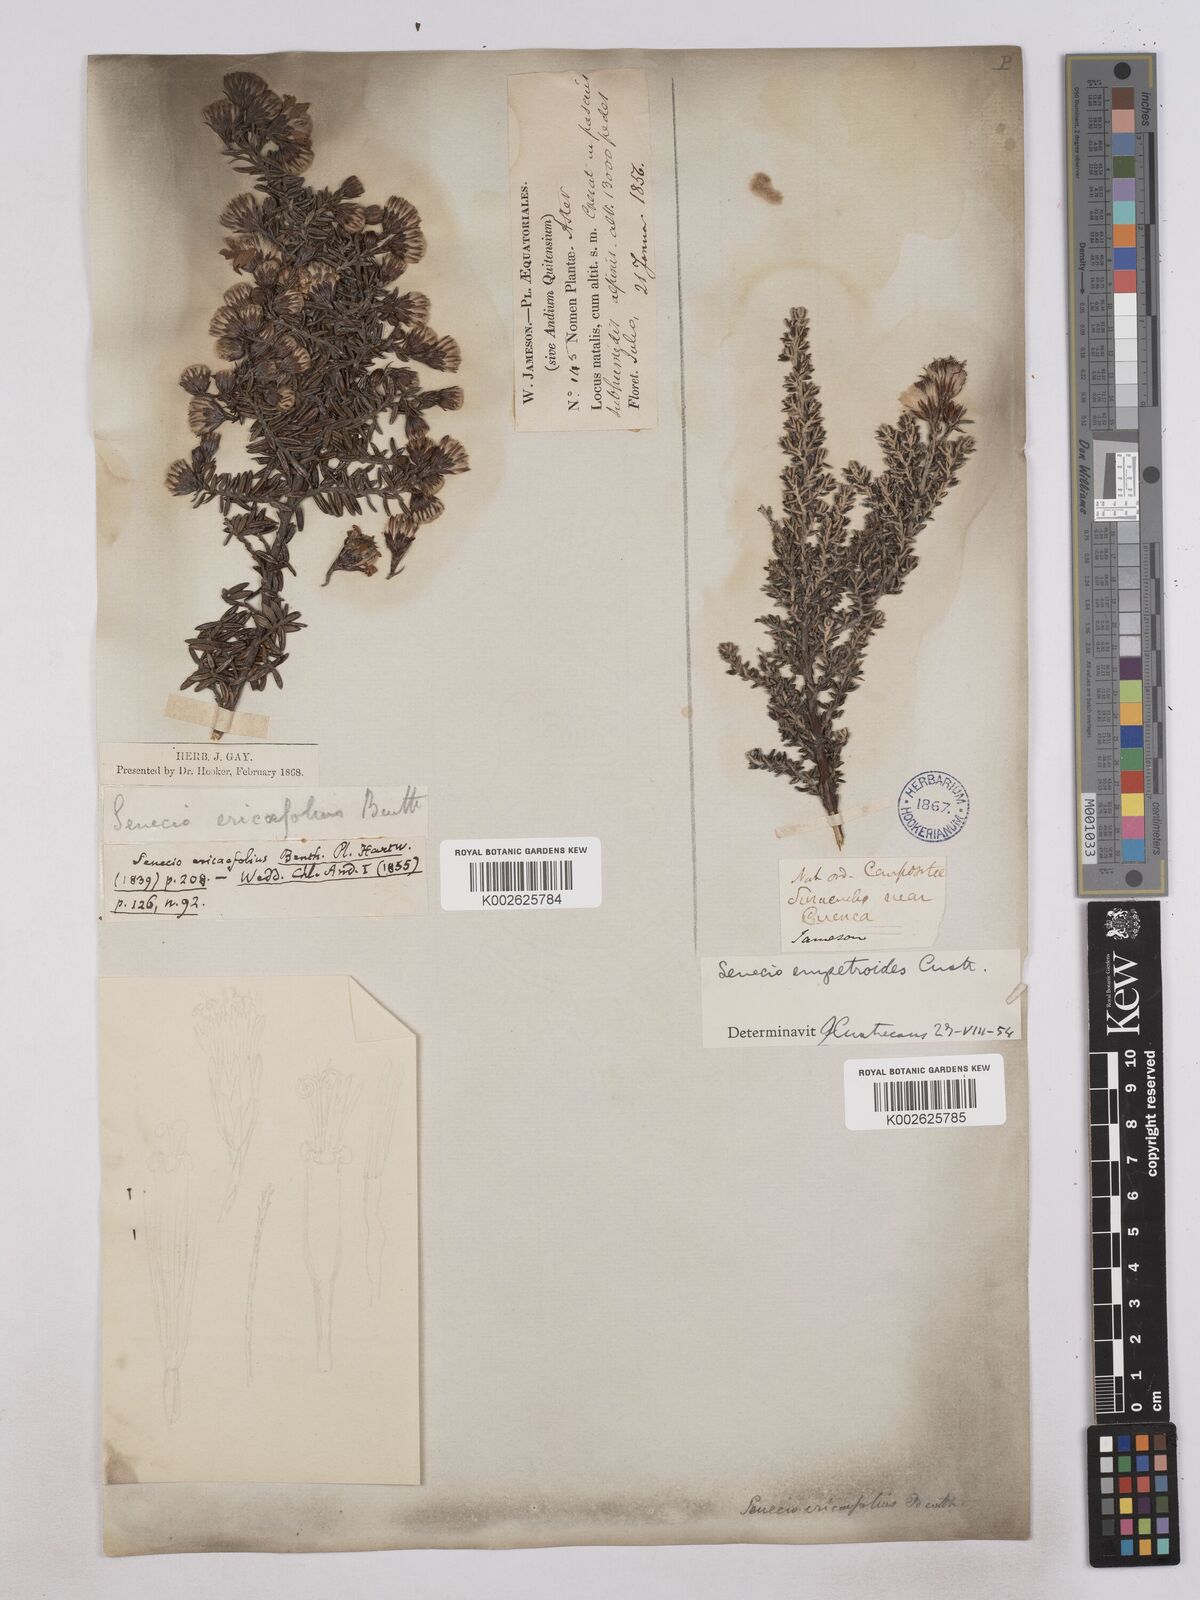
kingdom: Plantae
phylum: Tracheophyta
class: Magnoliopsida
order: Asterales
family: Asteraceae
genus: Monticalia
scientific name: Monticalia peruviana
